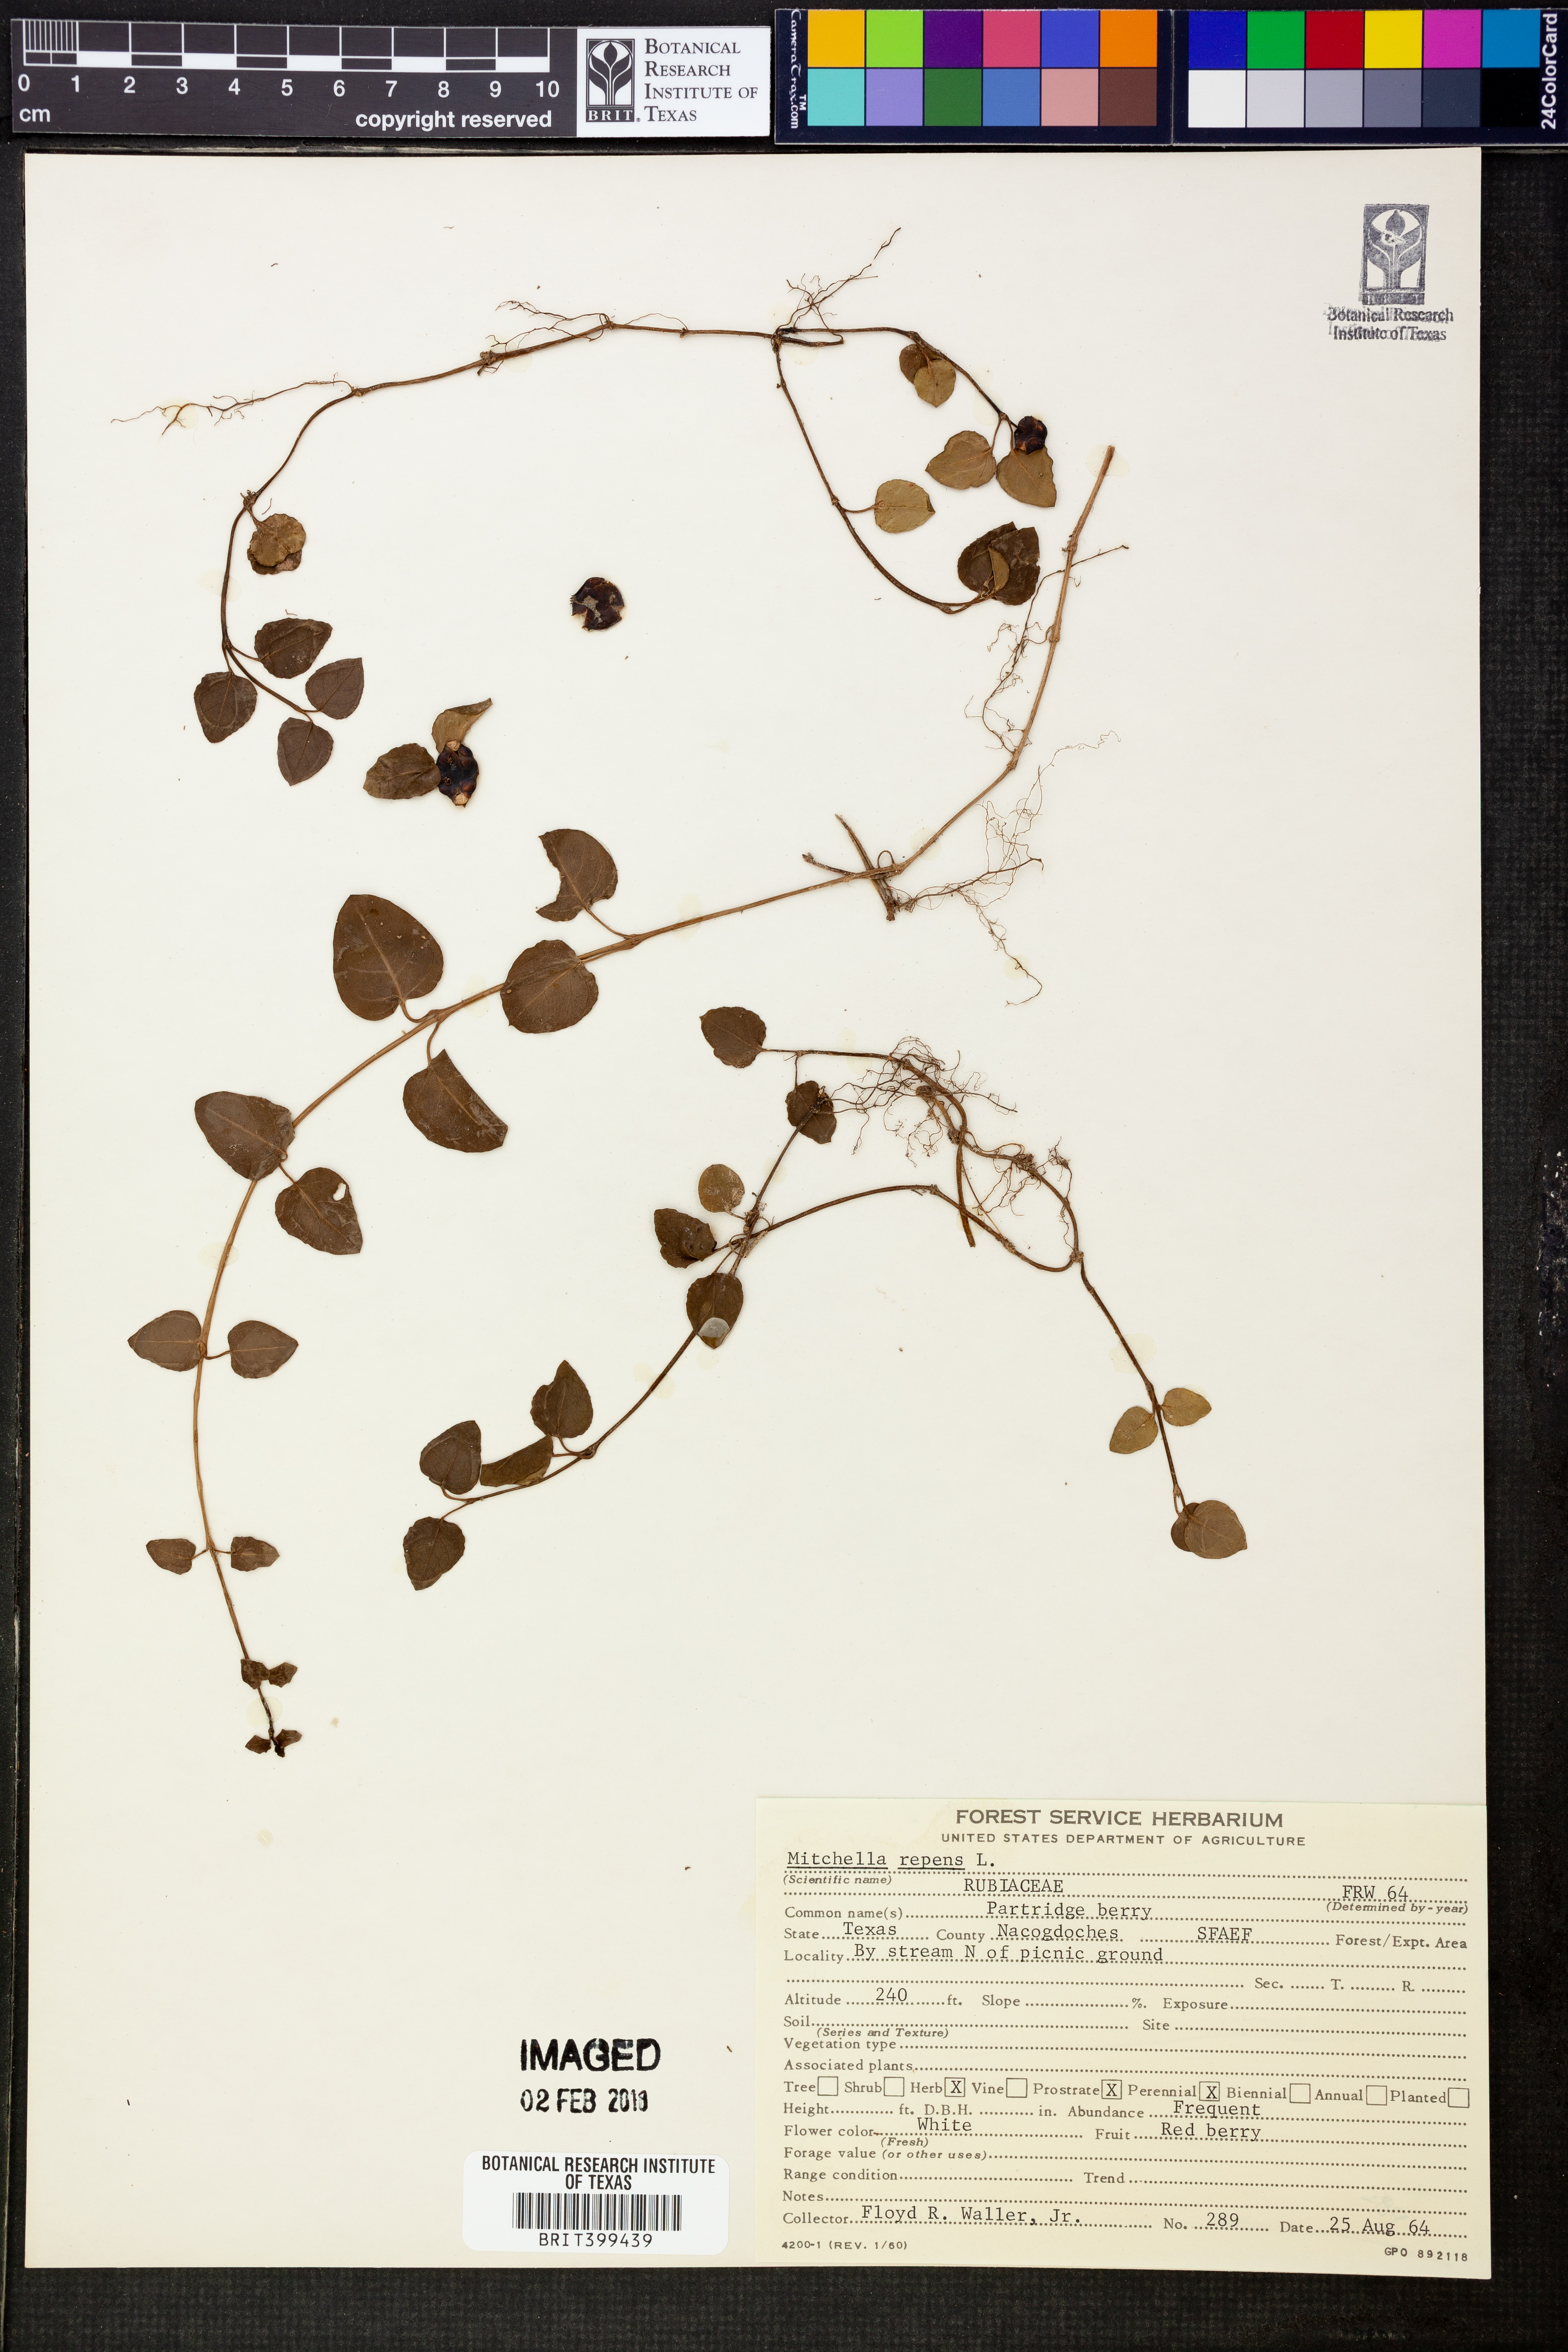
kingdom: Plantae
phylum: Tracheophyta
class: Magnoliopsida
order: Gentianales
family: Rubiaceae
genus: Mitchella
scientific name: Mitchella repens
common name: Partridge-berry
